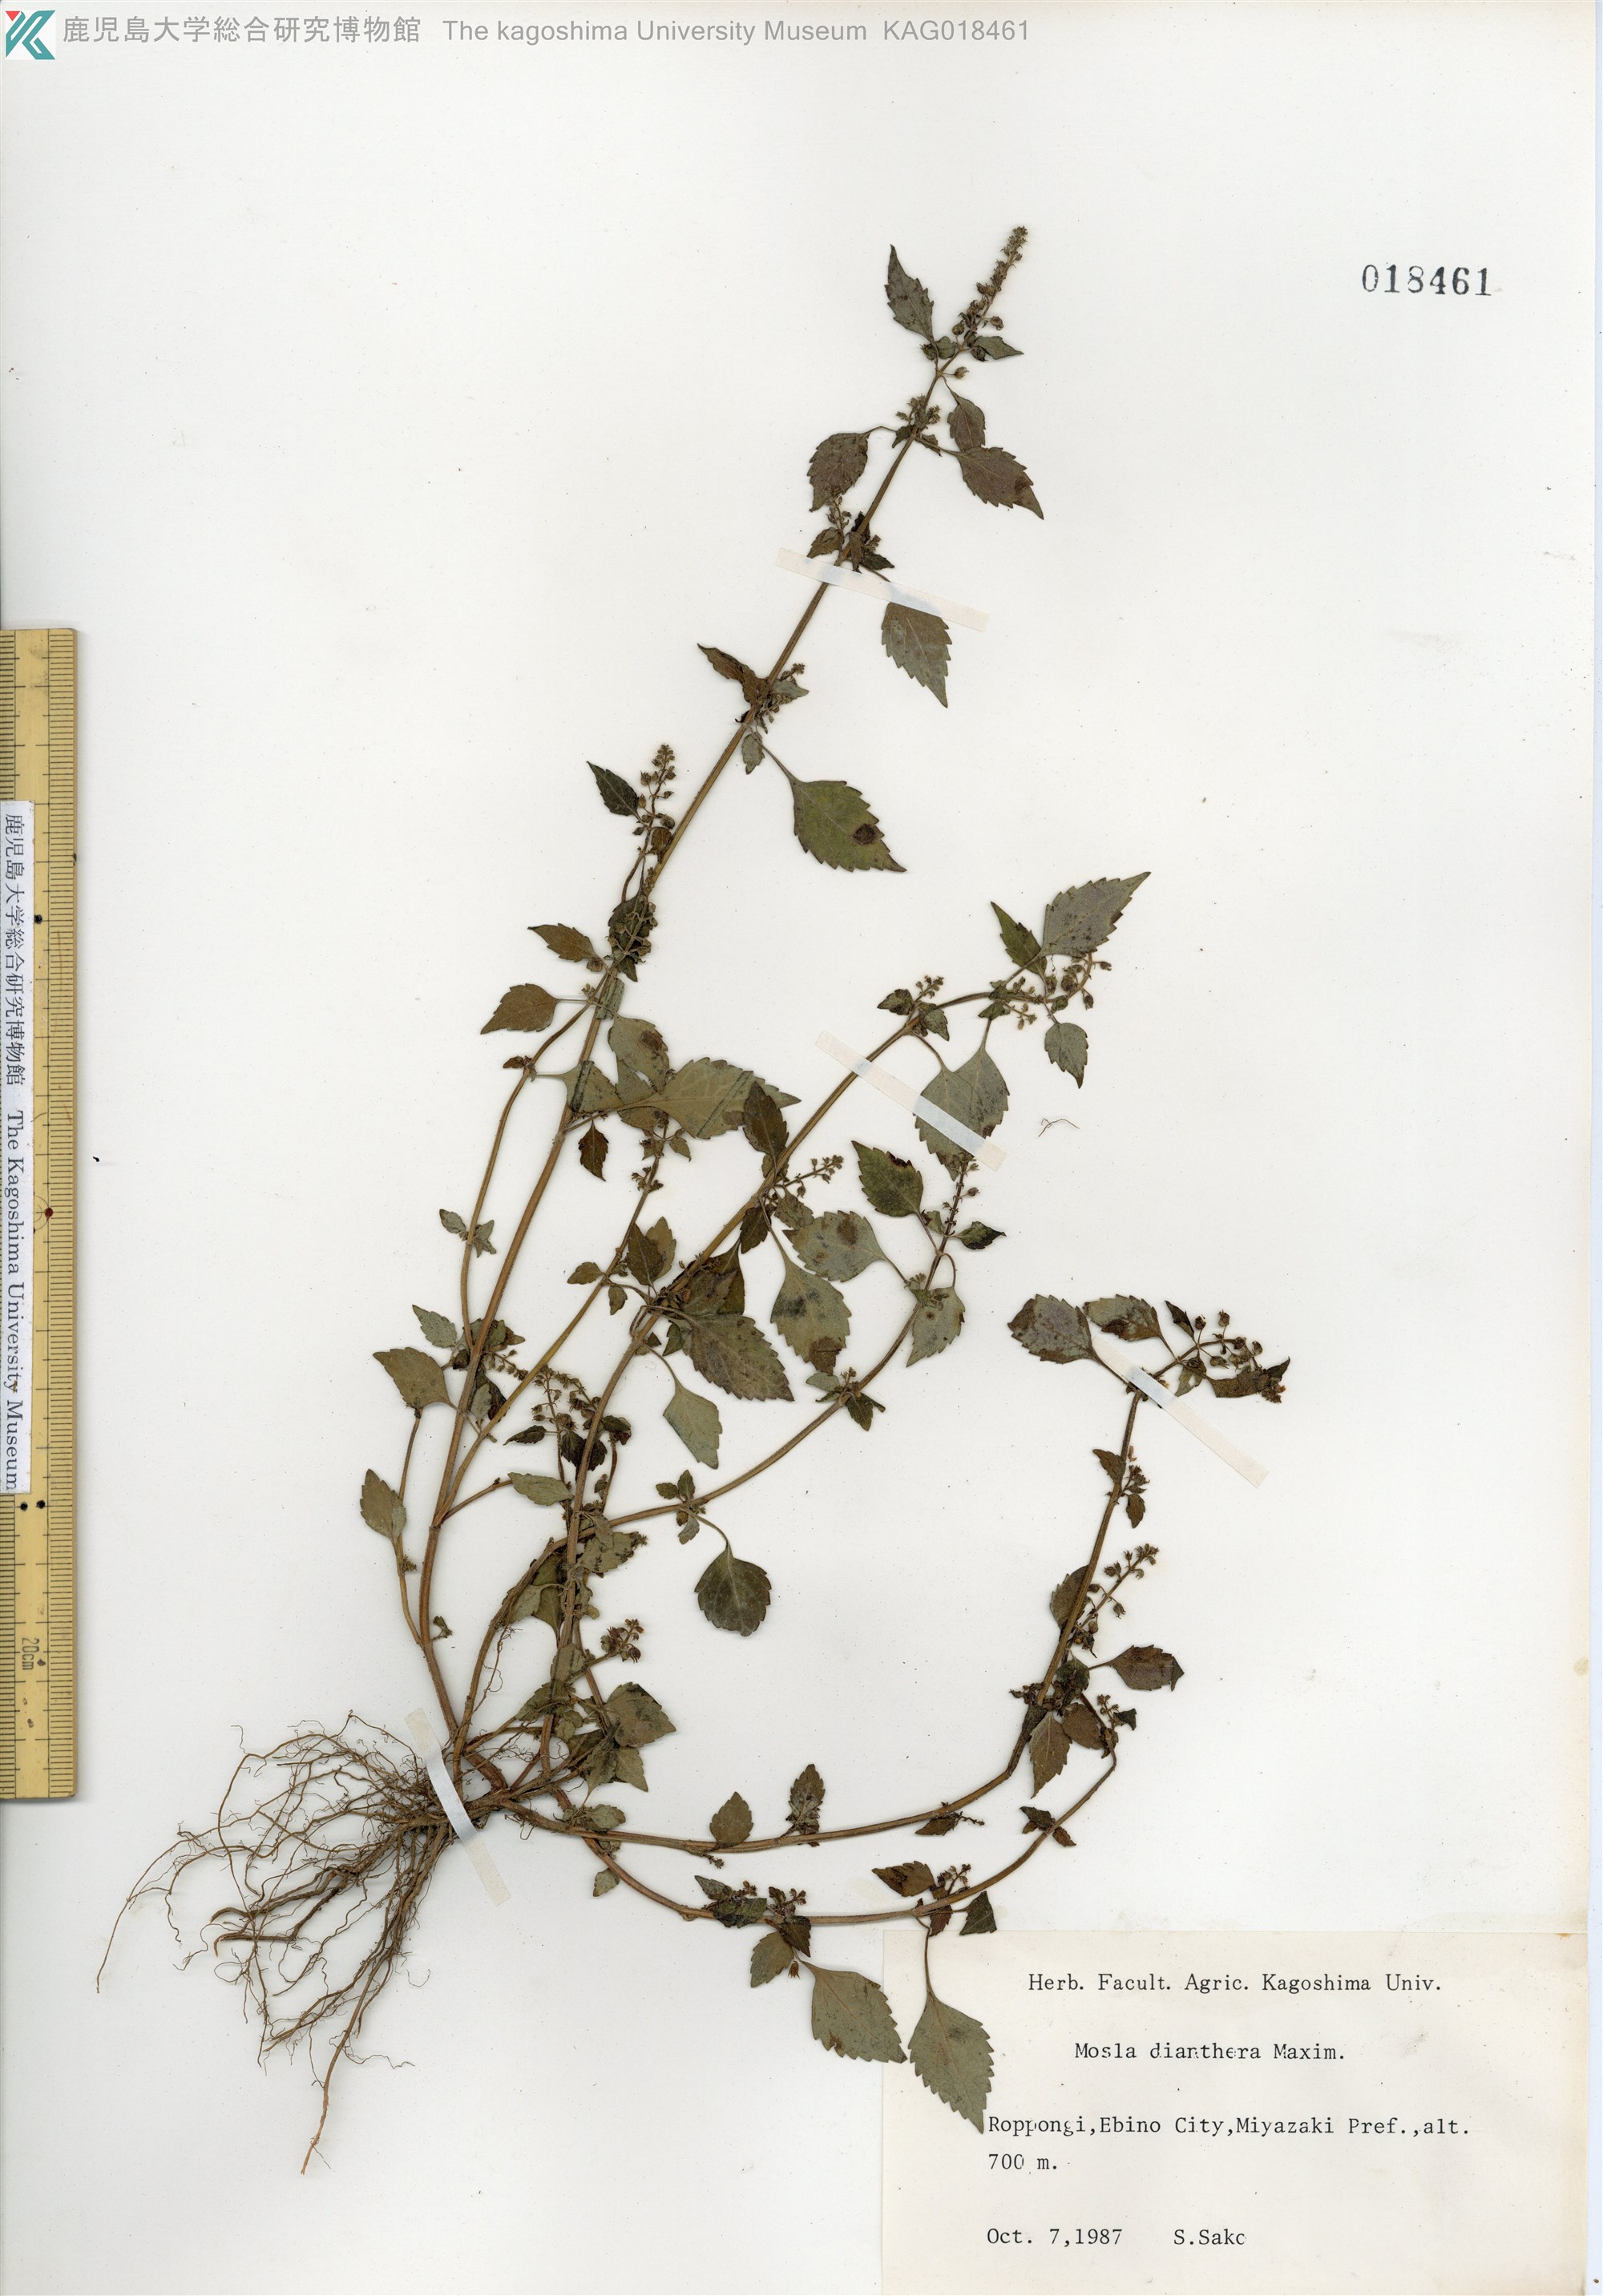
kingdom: Plantae
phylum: Tracheophyta
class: Magnoliopsida
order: Lamiales
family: Lamiaceae
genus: Mosla
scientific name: Mosla dianthera
